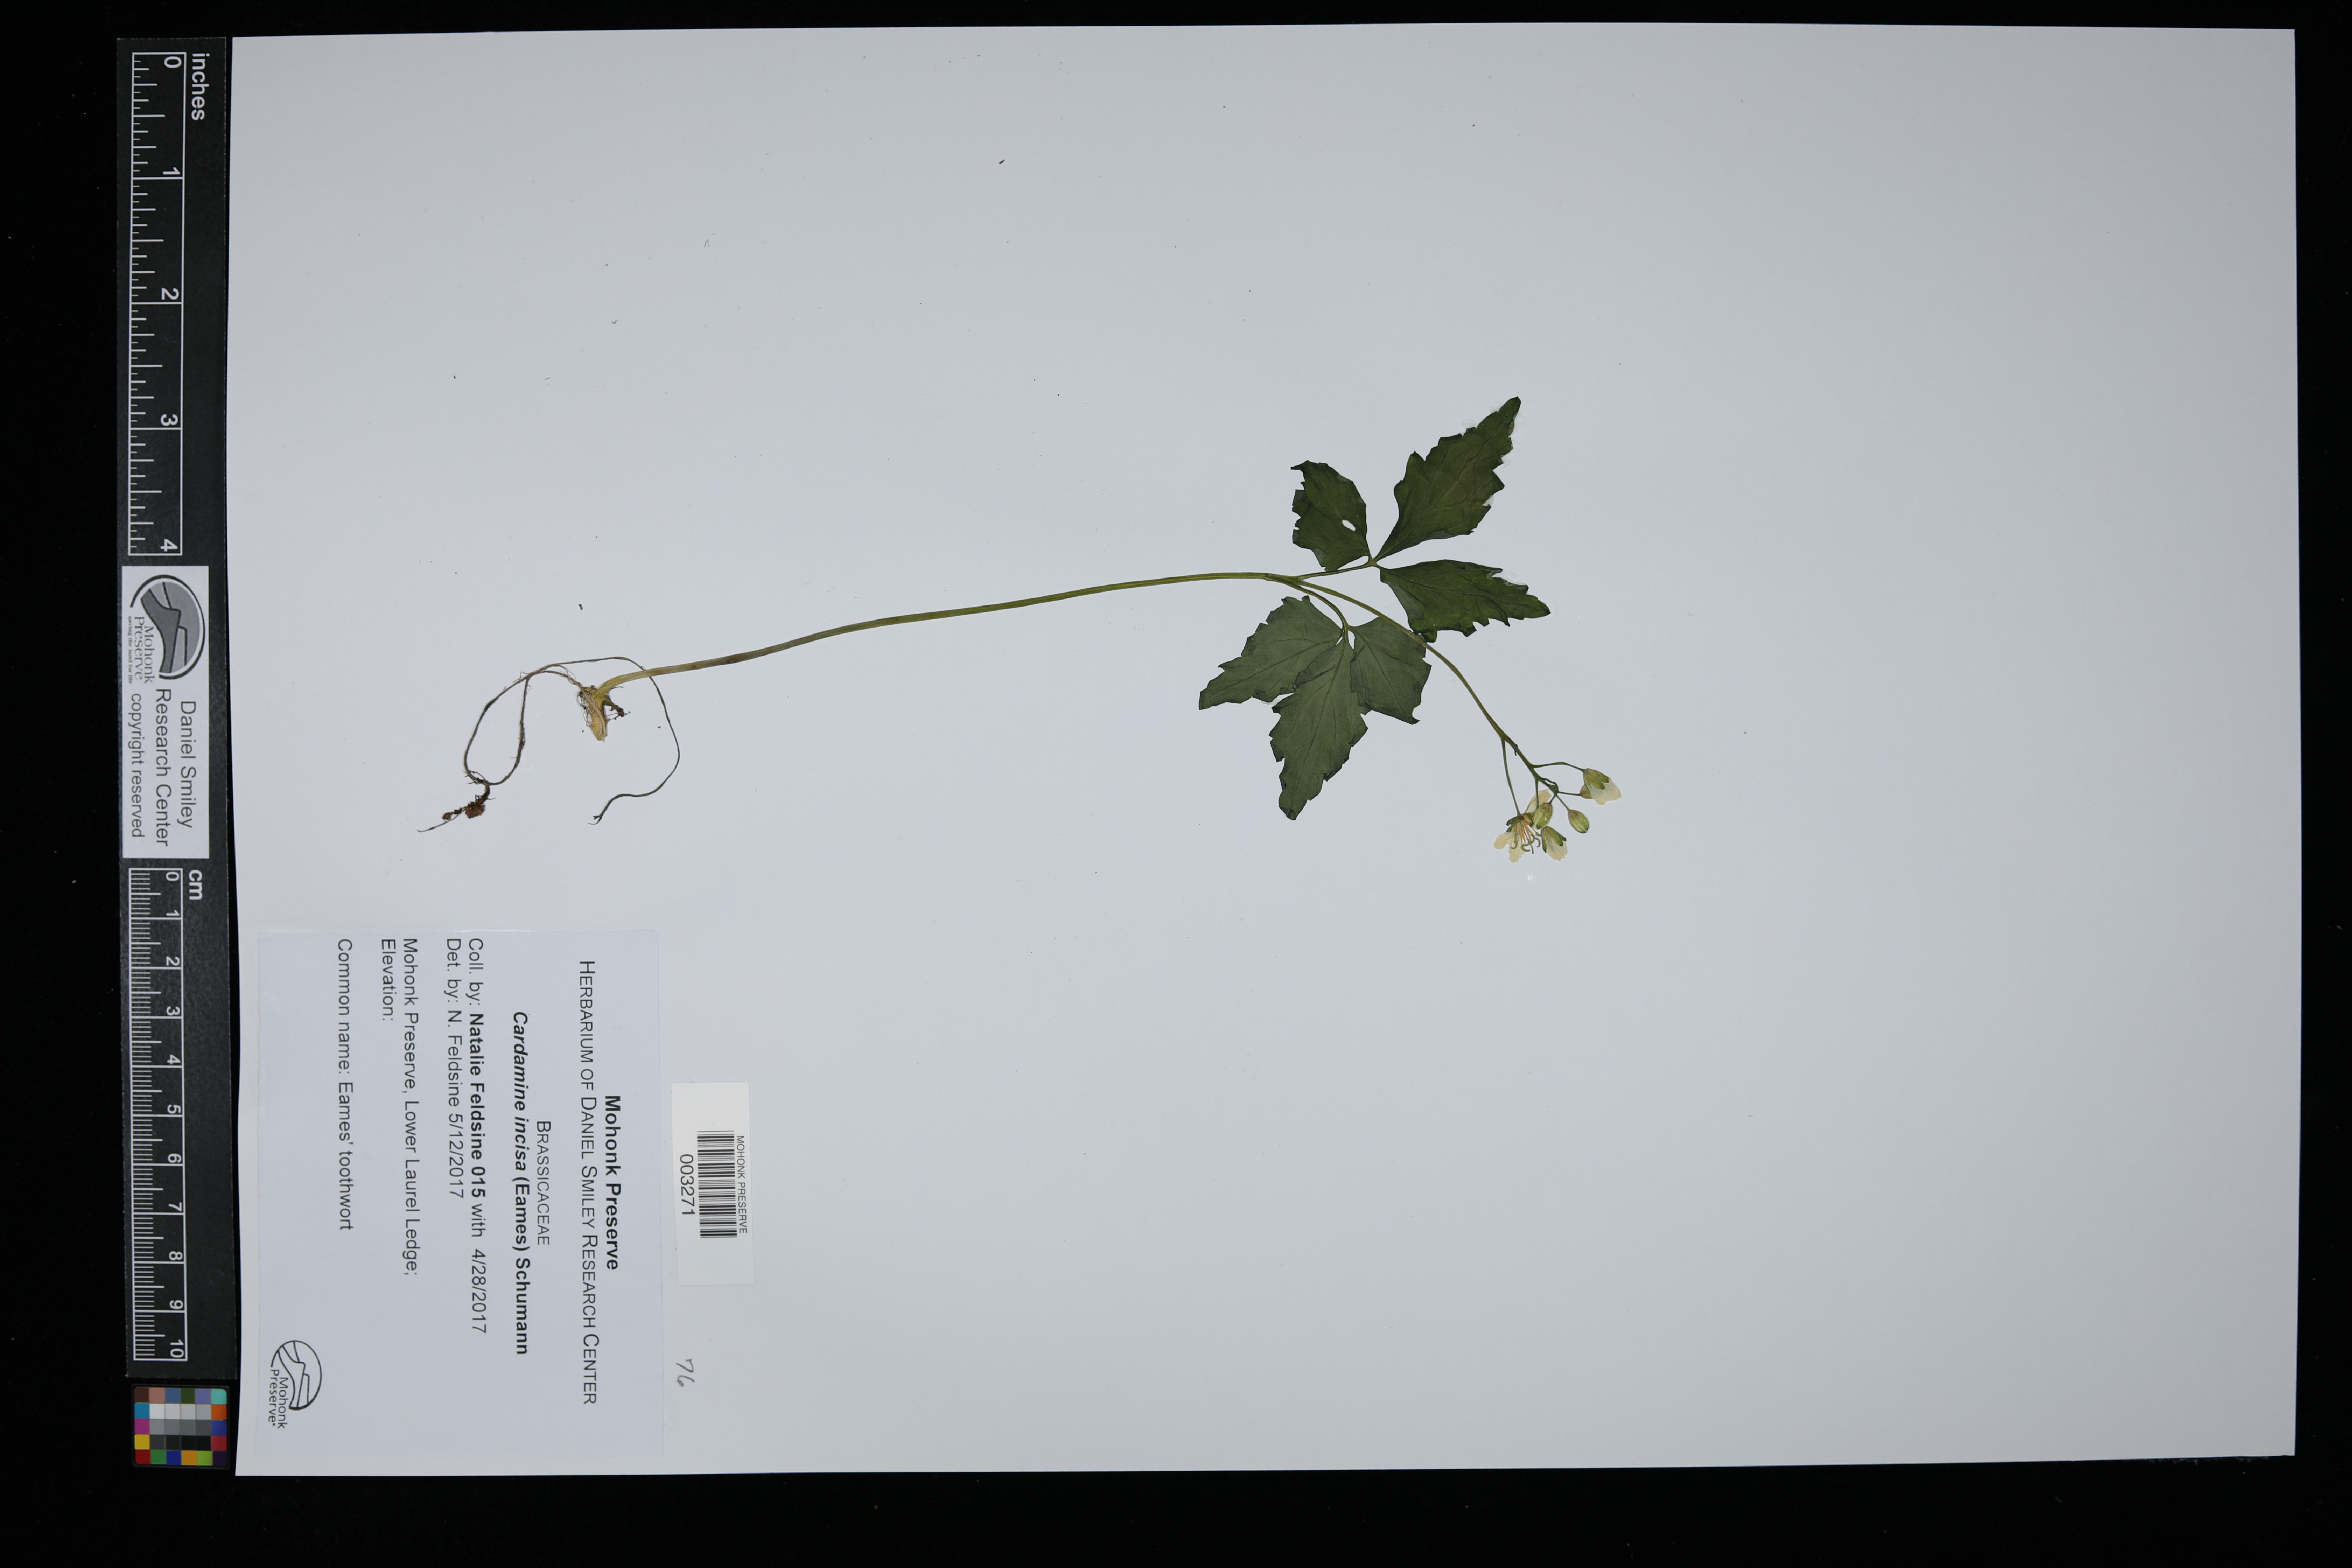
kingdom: Plantae
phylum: Tracheophyta
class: Magnoliopsida
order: Brassicales
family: Brassicaceae
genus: Cardamine
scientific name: Cardamine incisa
